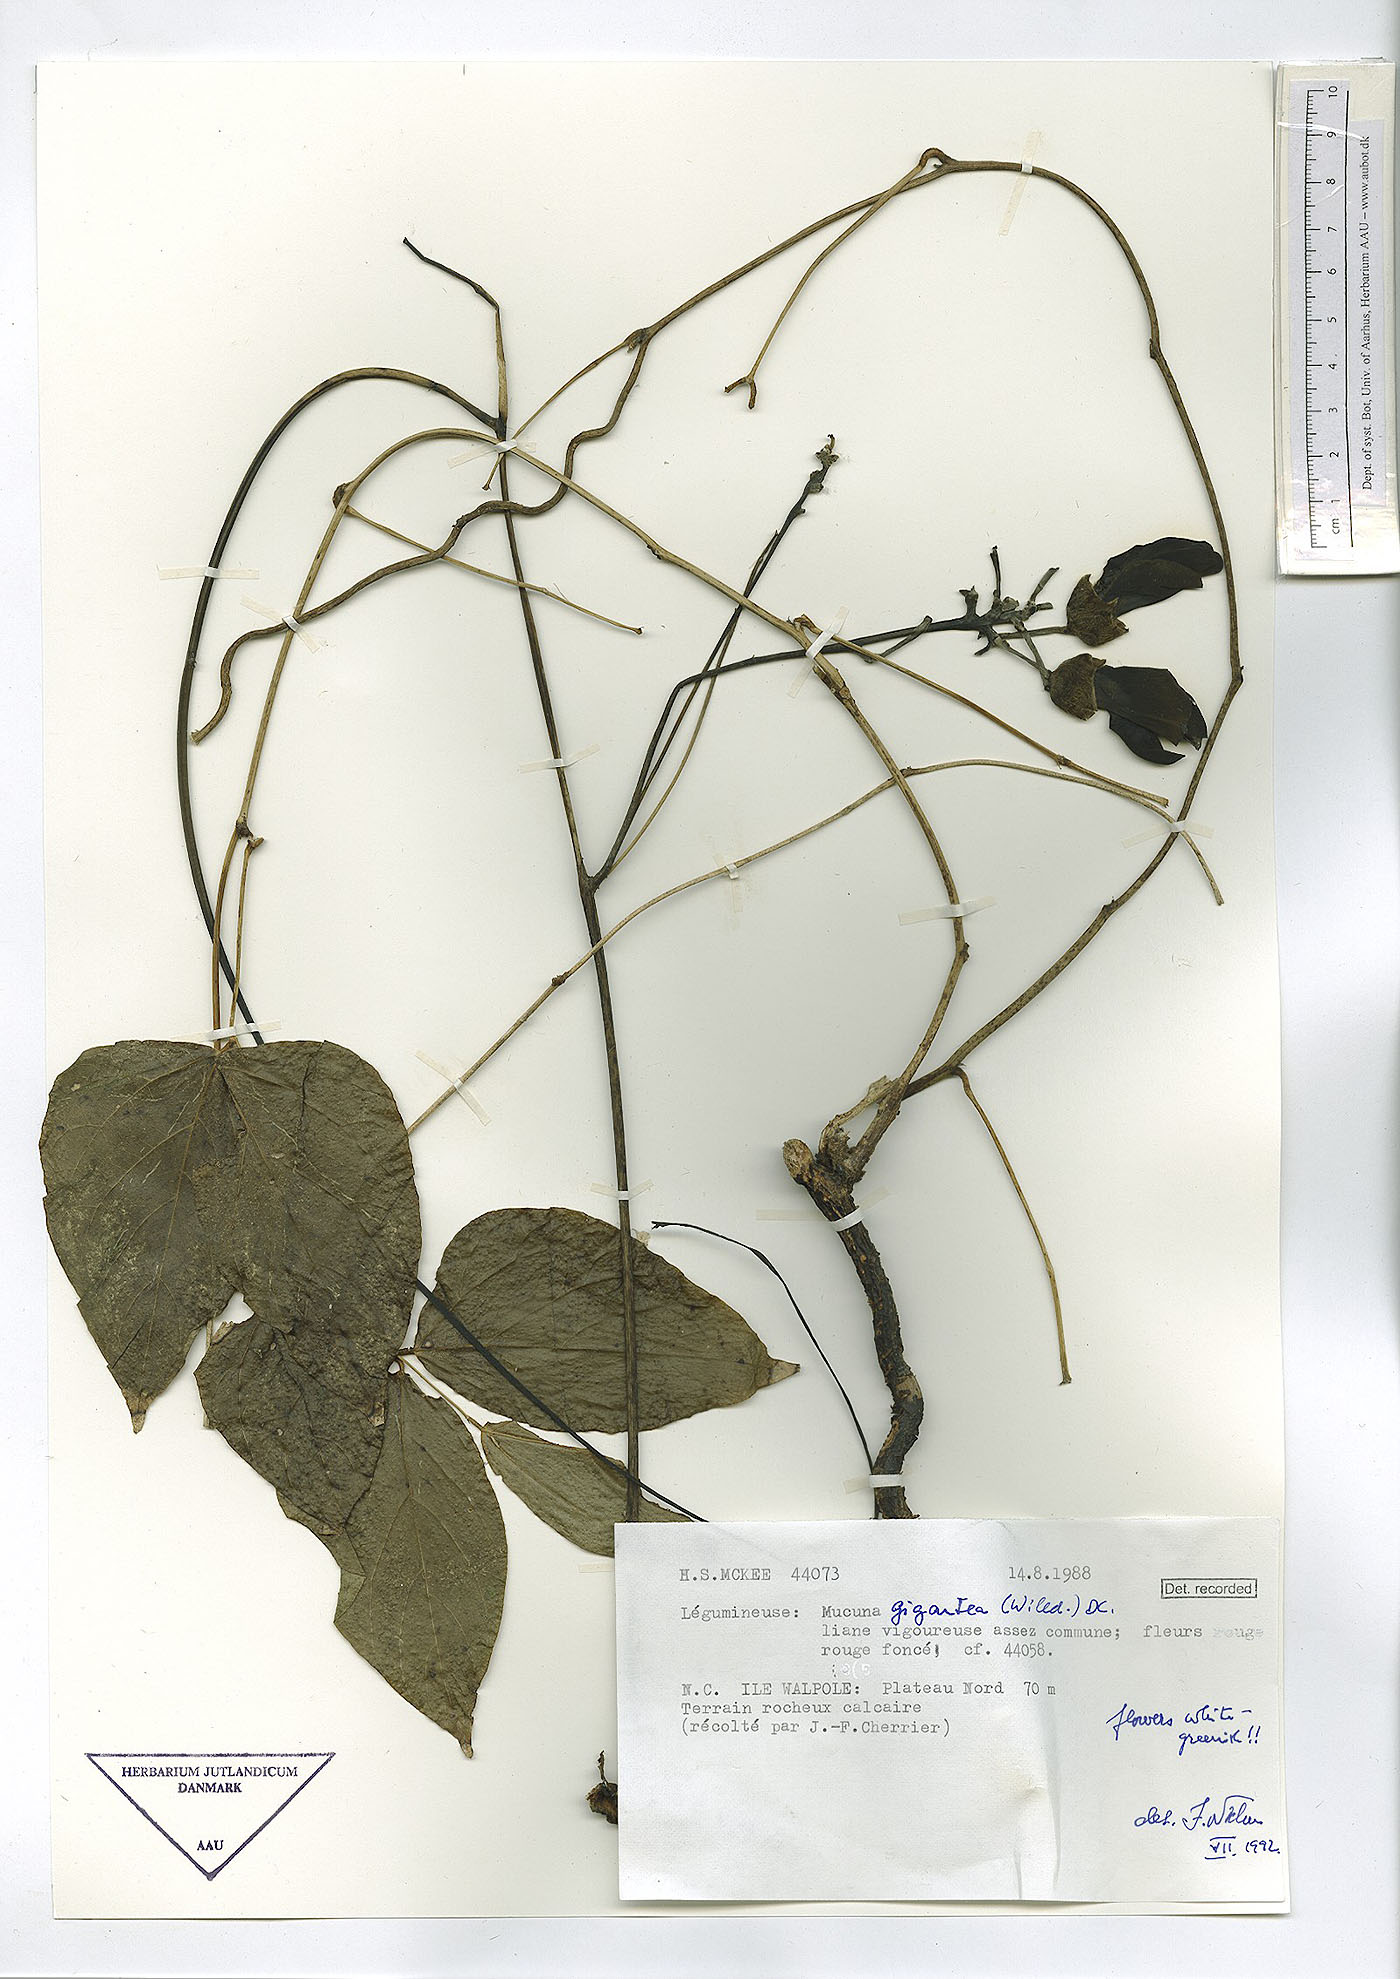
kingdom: Plantae
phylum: Tracheophyta
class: Magnoliopsida
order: Fabales
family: Fabaceae
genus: Mucuna
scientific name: Mucuna gigantea
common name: Black-bean
